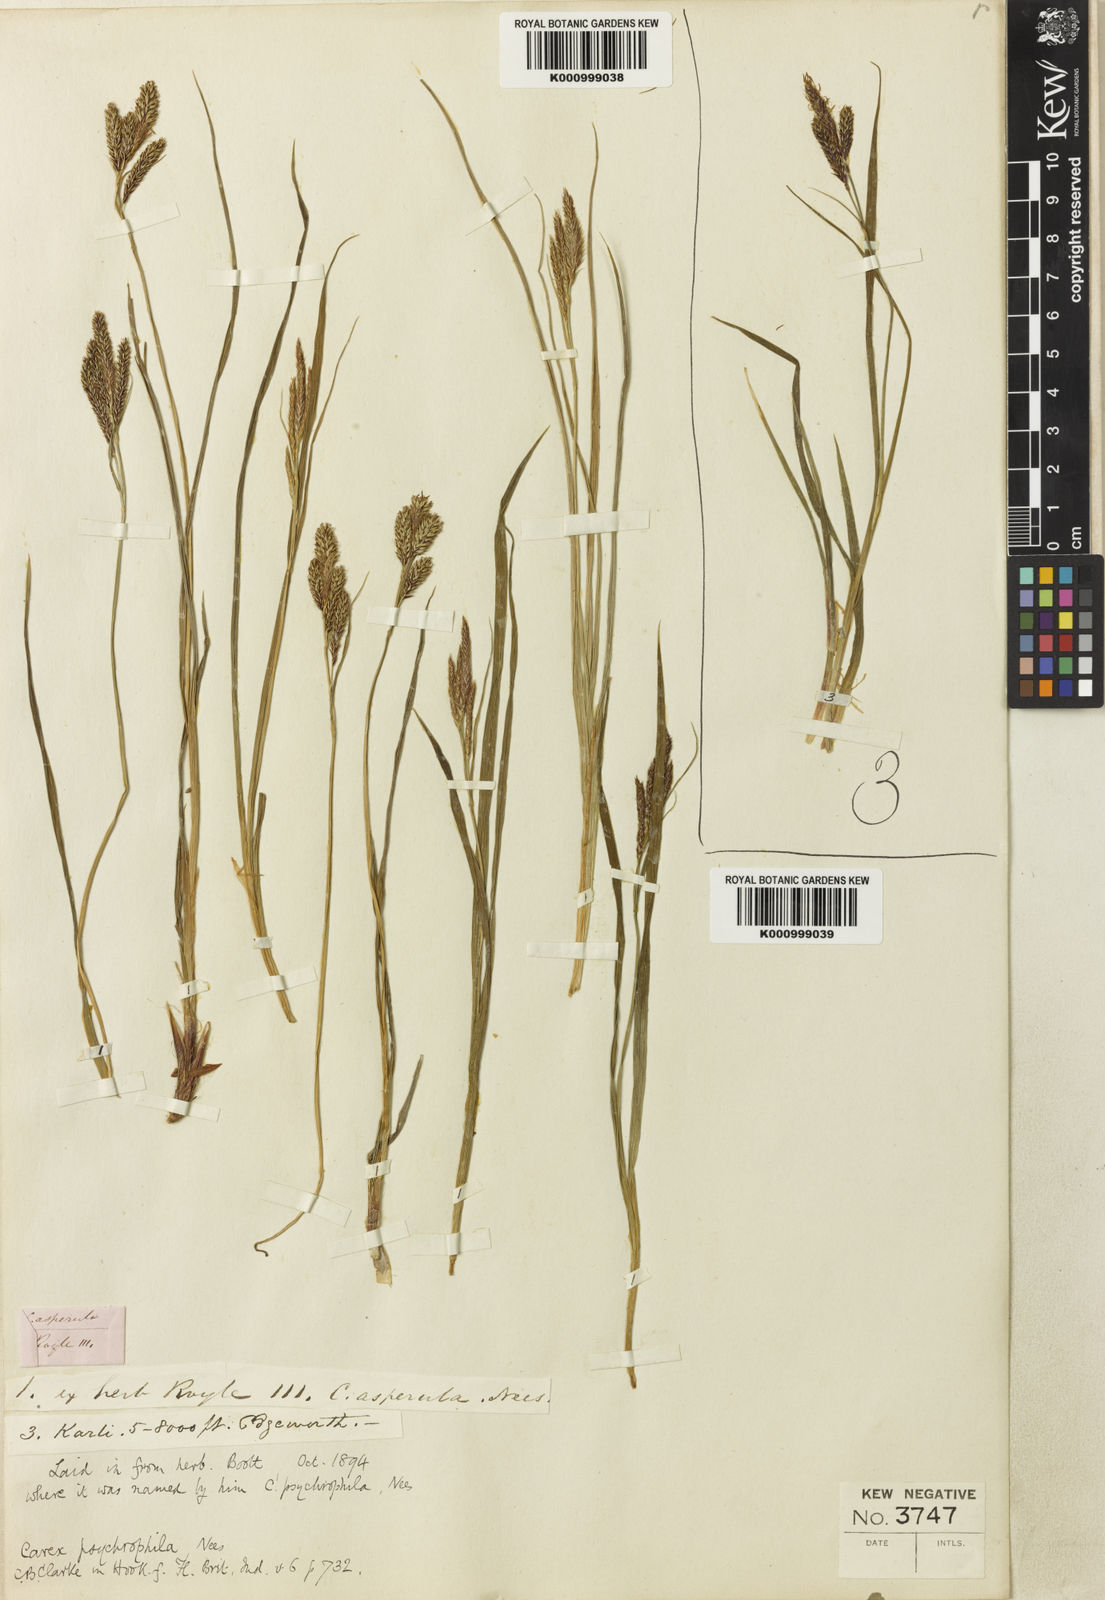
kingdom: Plantae
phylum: Tracheophyta
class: Liliopsida
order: Poales
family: Cyperaceae
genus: Carex
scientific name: Carex psychrophila
